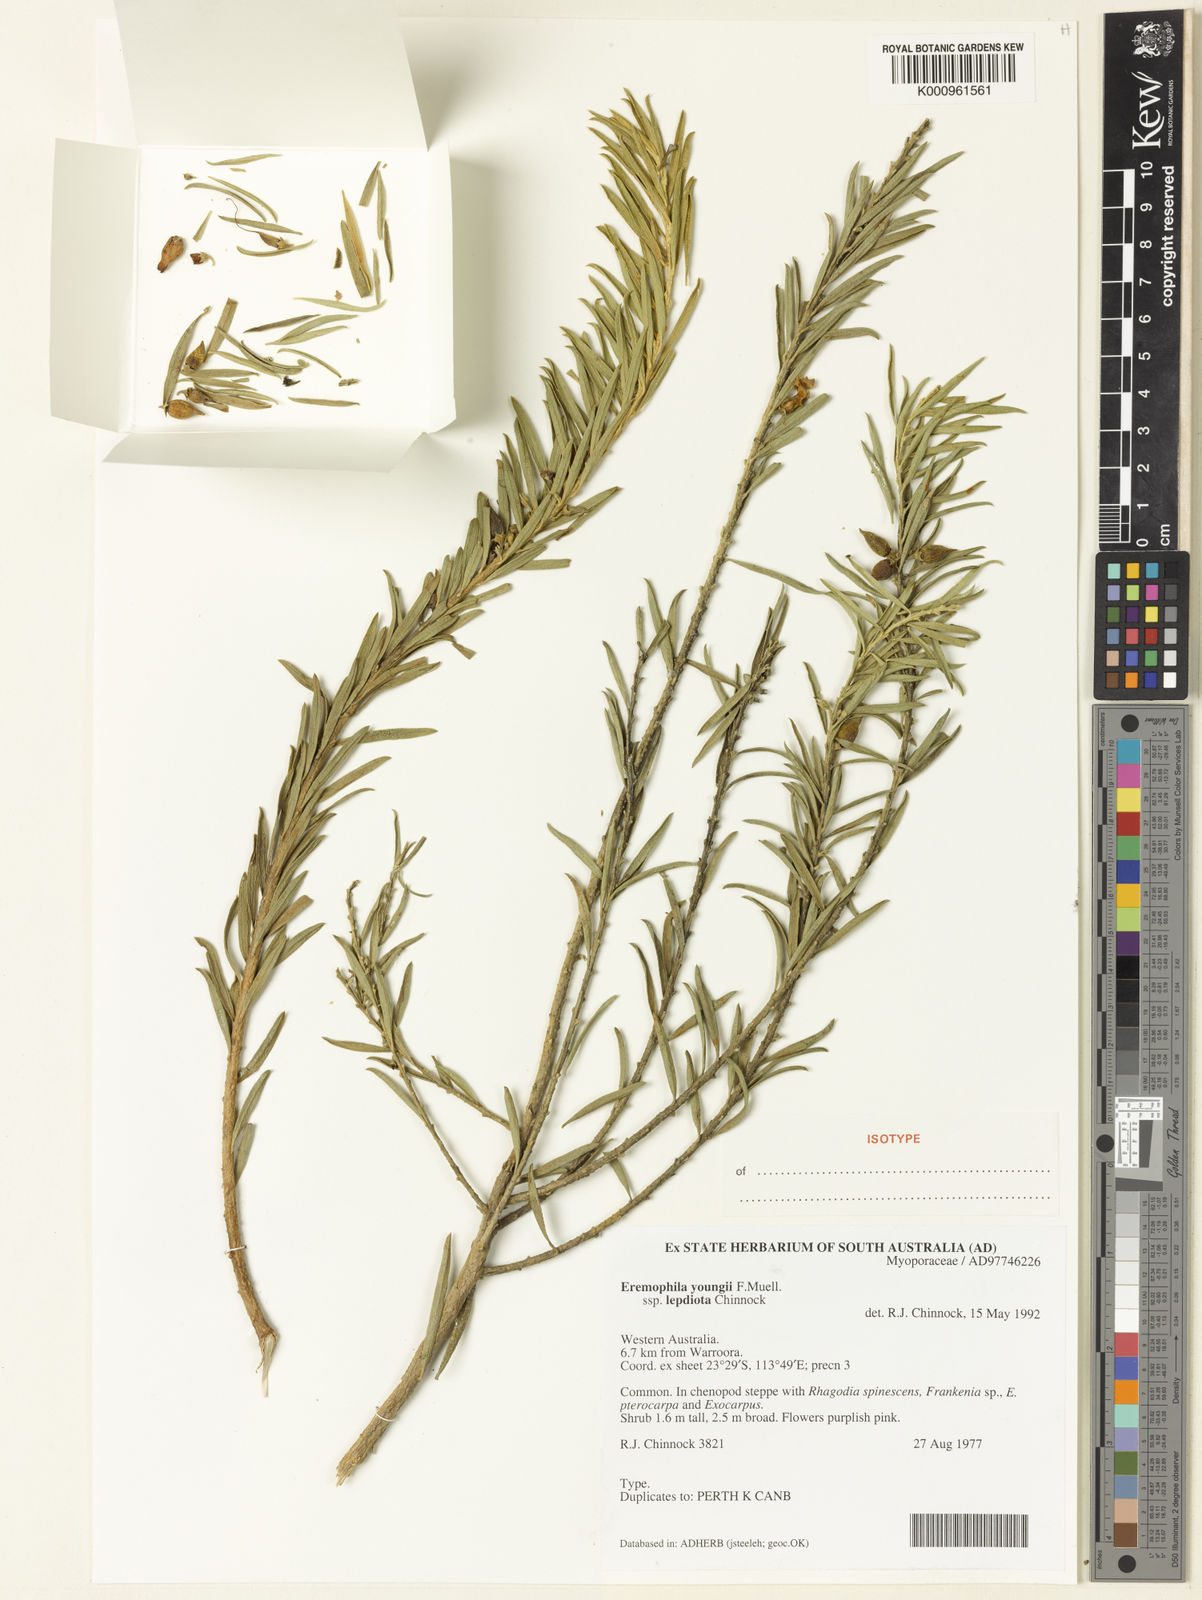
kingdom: Plantae
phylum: Tracheophyta
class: Magnoliopsida
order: Lamiales
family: Scrophulariaceae
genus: Eremophila
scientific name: Eremophila youngii
